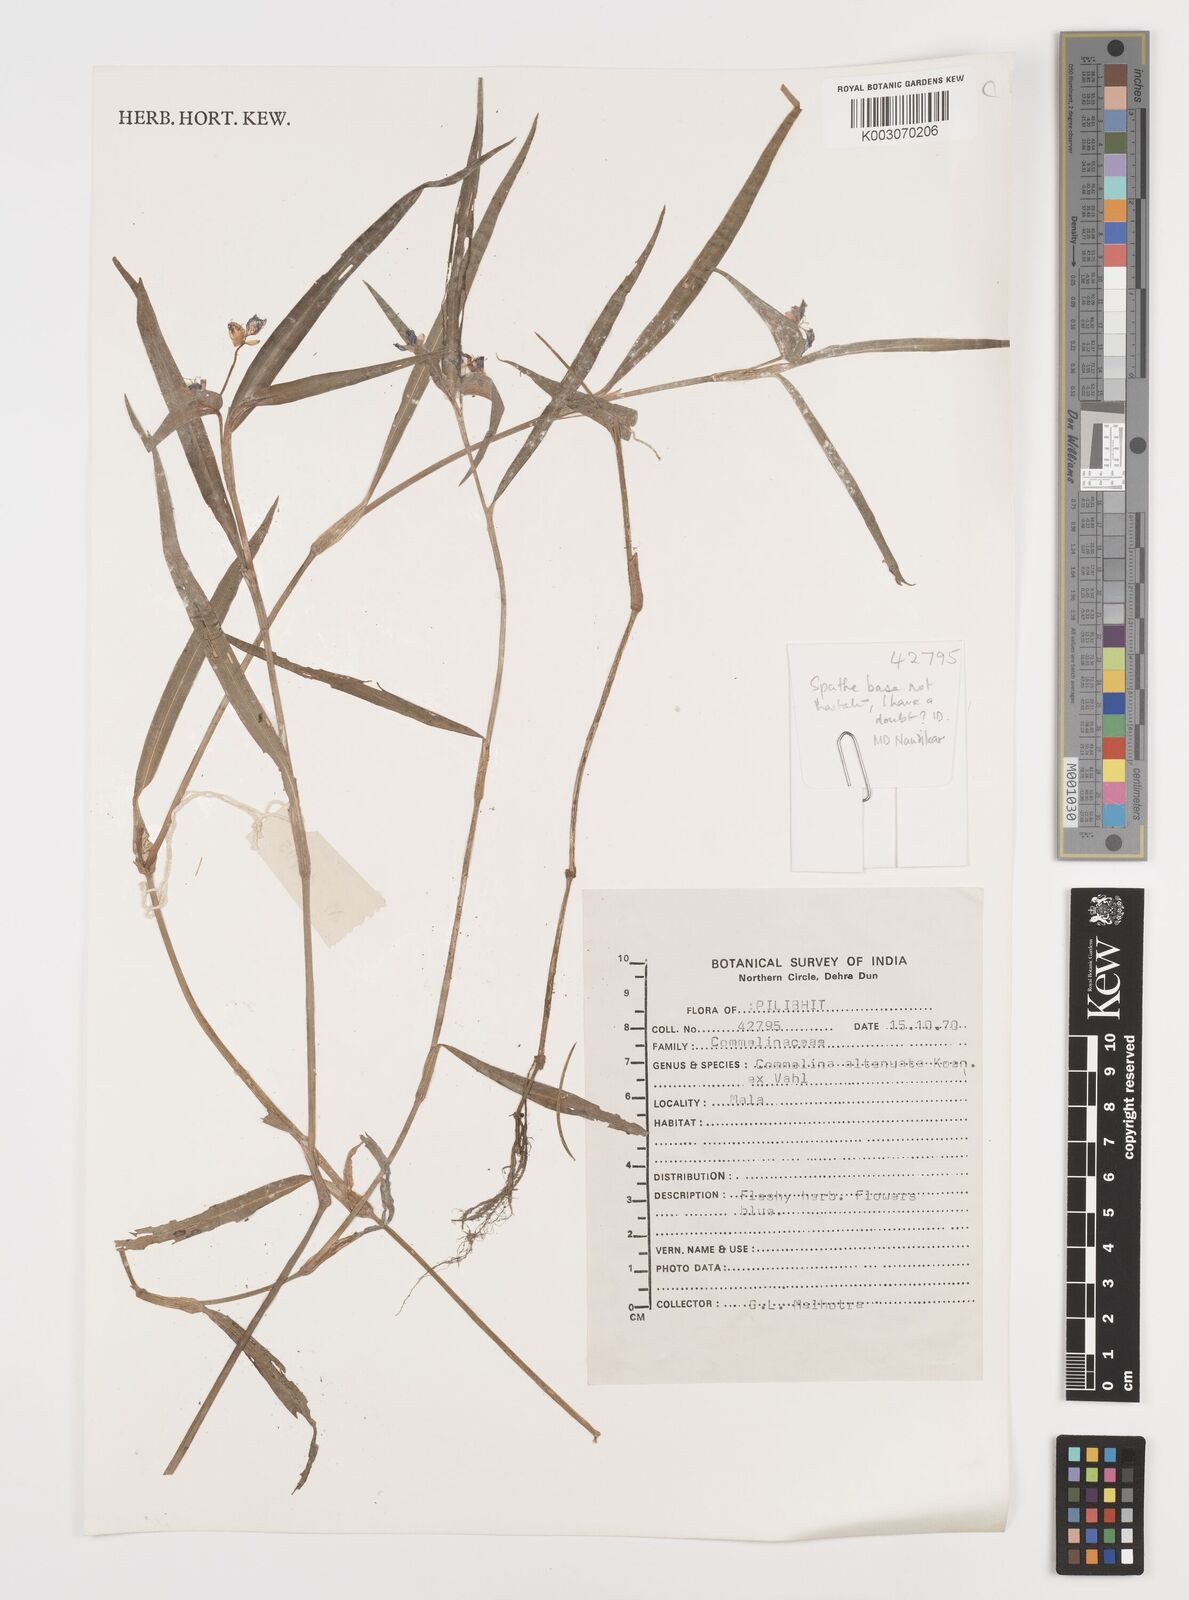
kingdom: Plantae
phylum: Tracheophyta
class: Liliopsida
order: Commelinales
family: Commelinaceae
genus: Commelina
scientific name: Commelina attenuata
